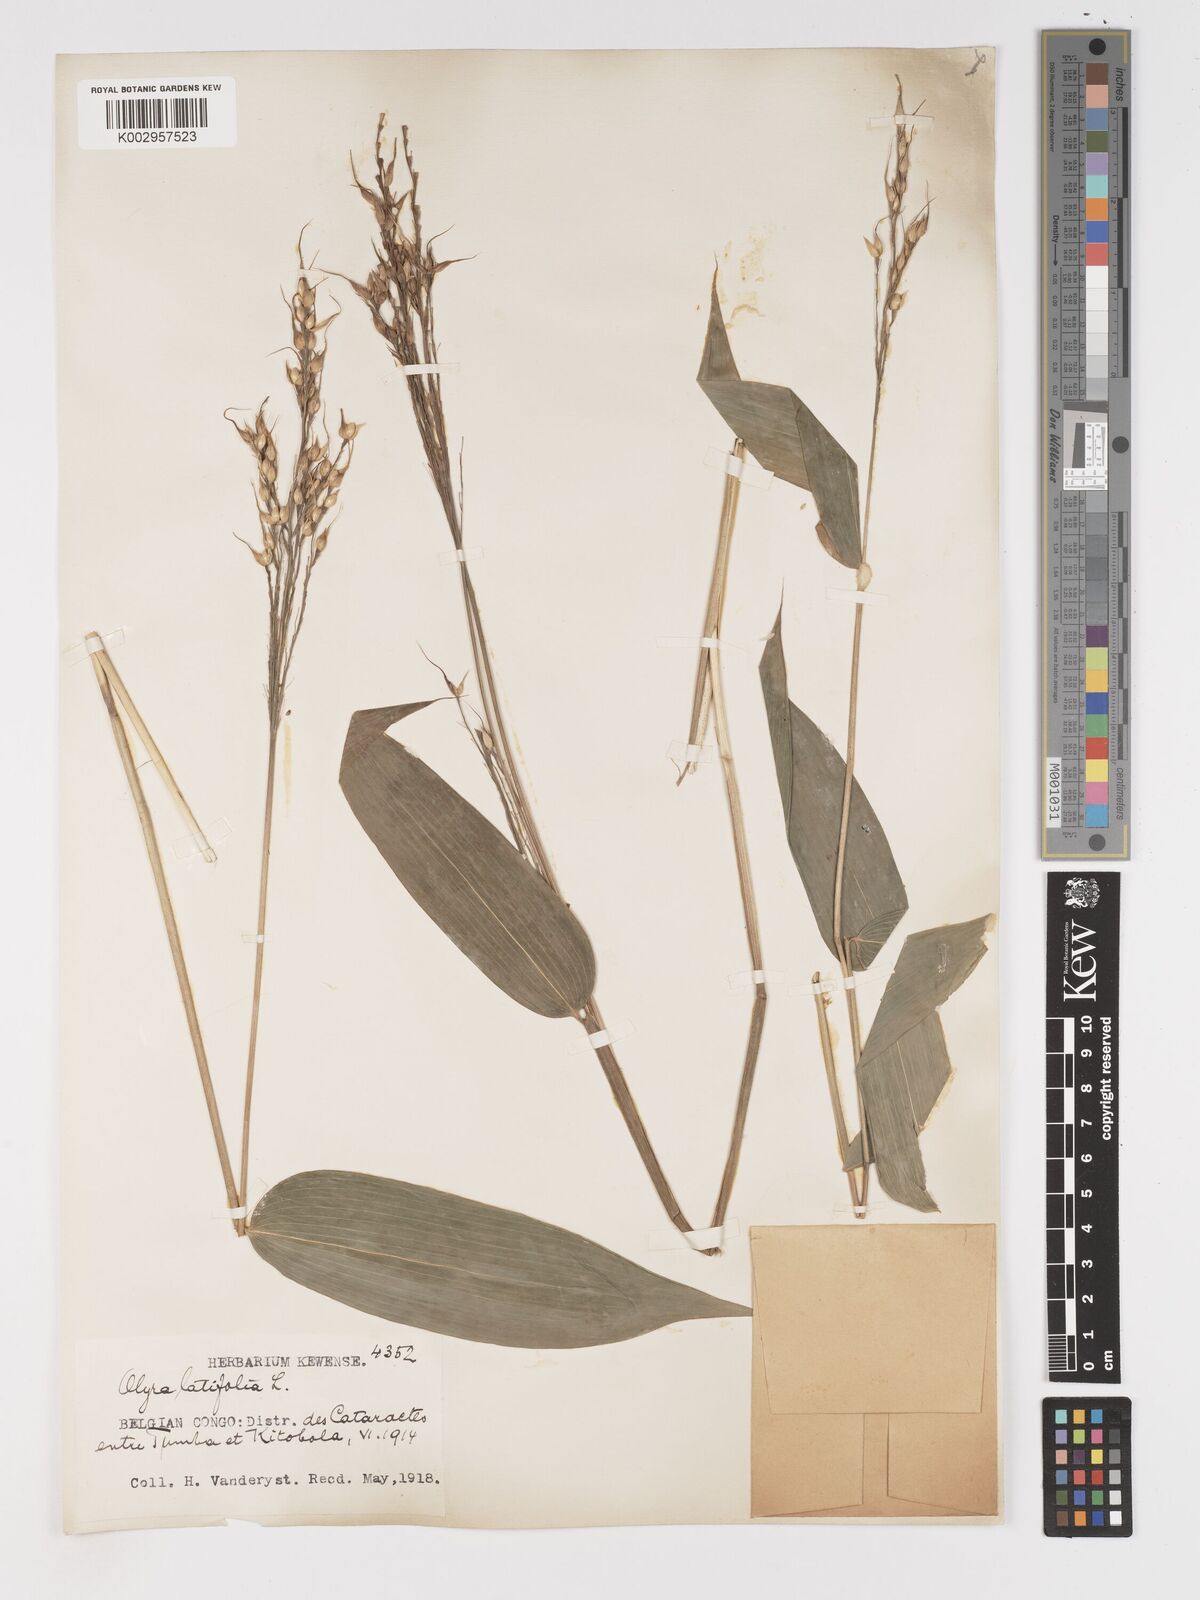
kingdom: Plantae
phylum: Tracheophyta
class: Liliopsida
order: Poales
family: Poaceae
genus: Olyra
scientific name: Olyra latifolia
